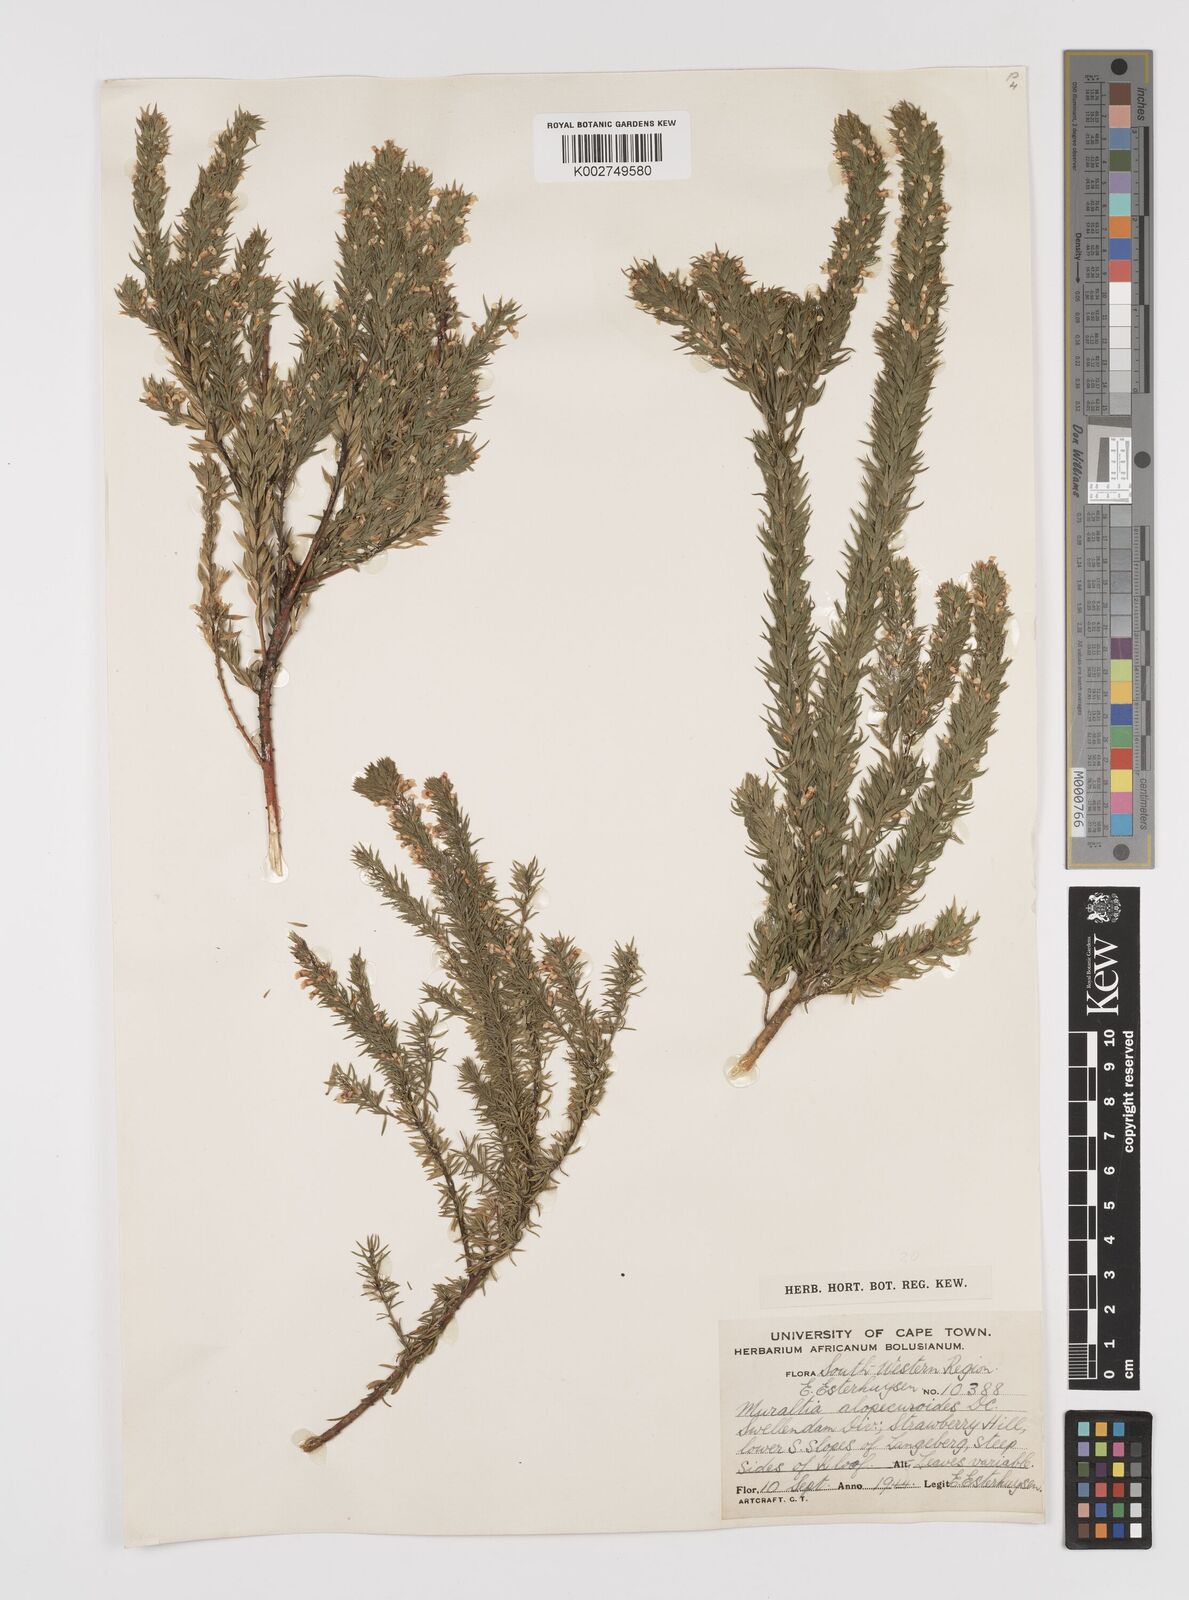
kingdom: Plantae
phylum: Tracheophyta
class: Magnoliopsida
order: Fabales
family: Polygalaceae
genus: Muraltia
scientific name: Muraltia alopecuroides
